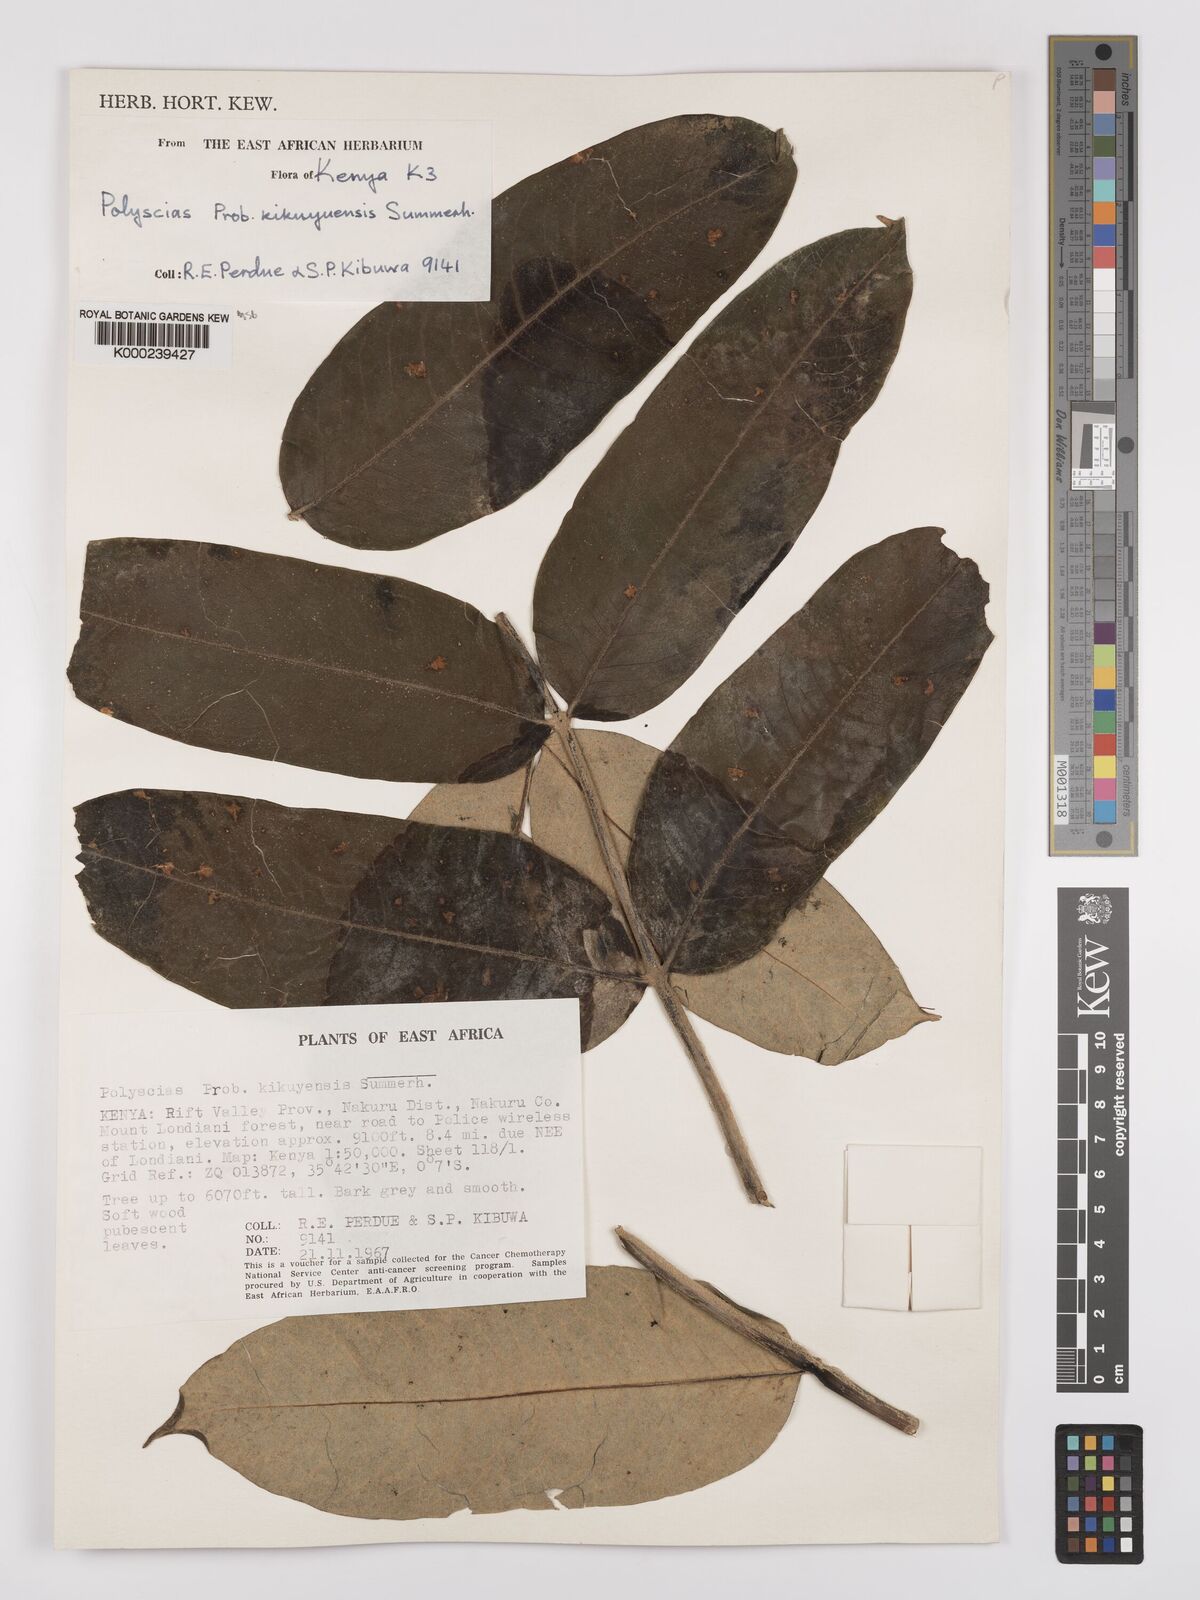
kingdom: Plantae
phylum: Tracheophyta
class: Magnoliopsida
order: Apiales
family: Araliaceae
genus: Polyscias
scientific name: Polyscias kikuyuensis
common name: Parasol tree
